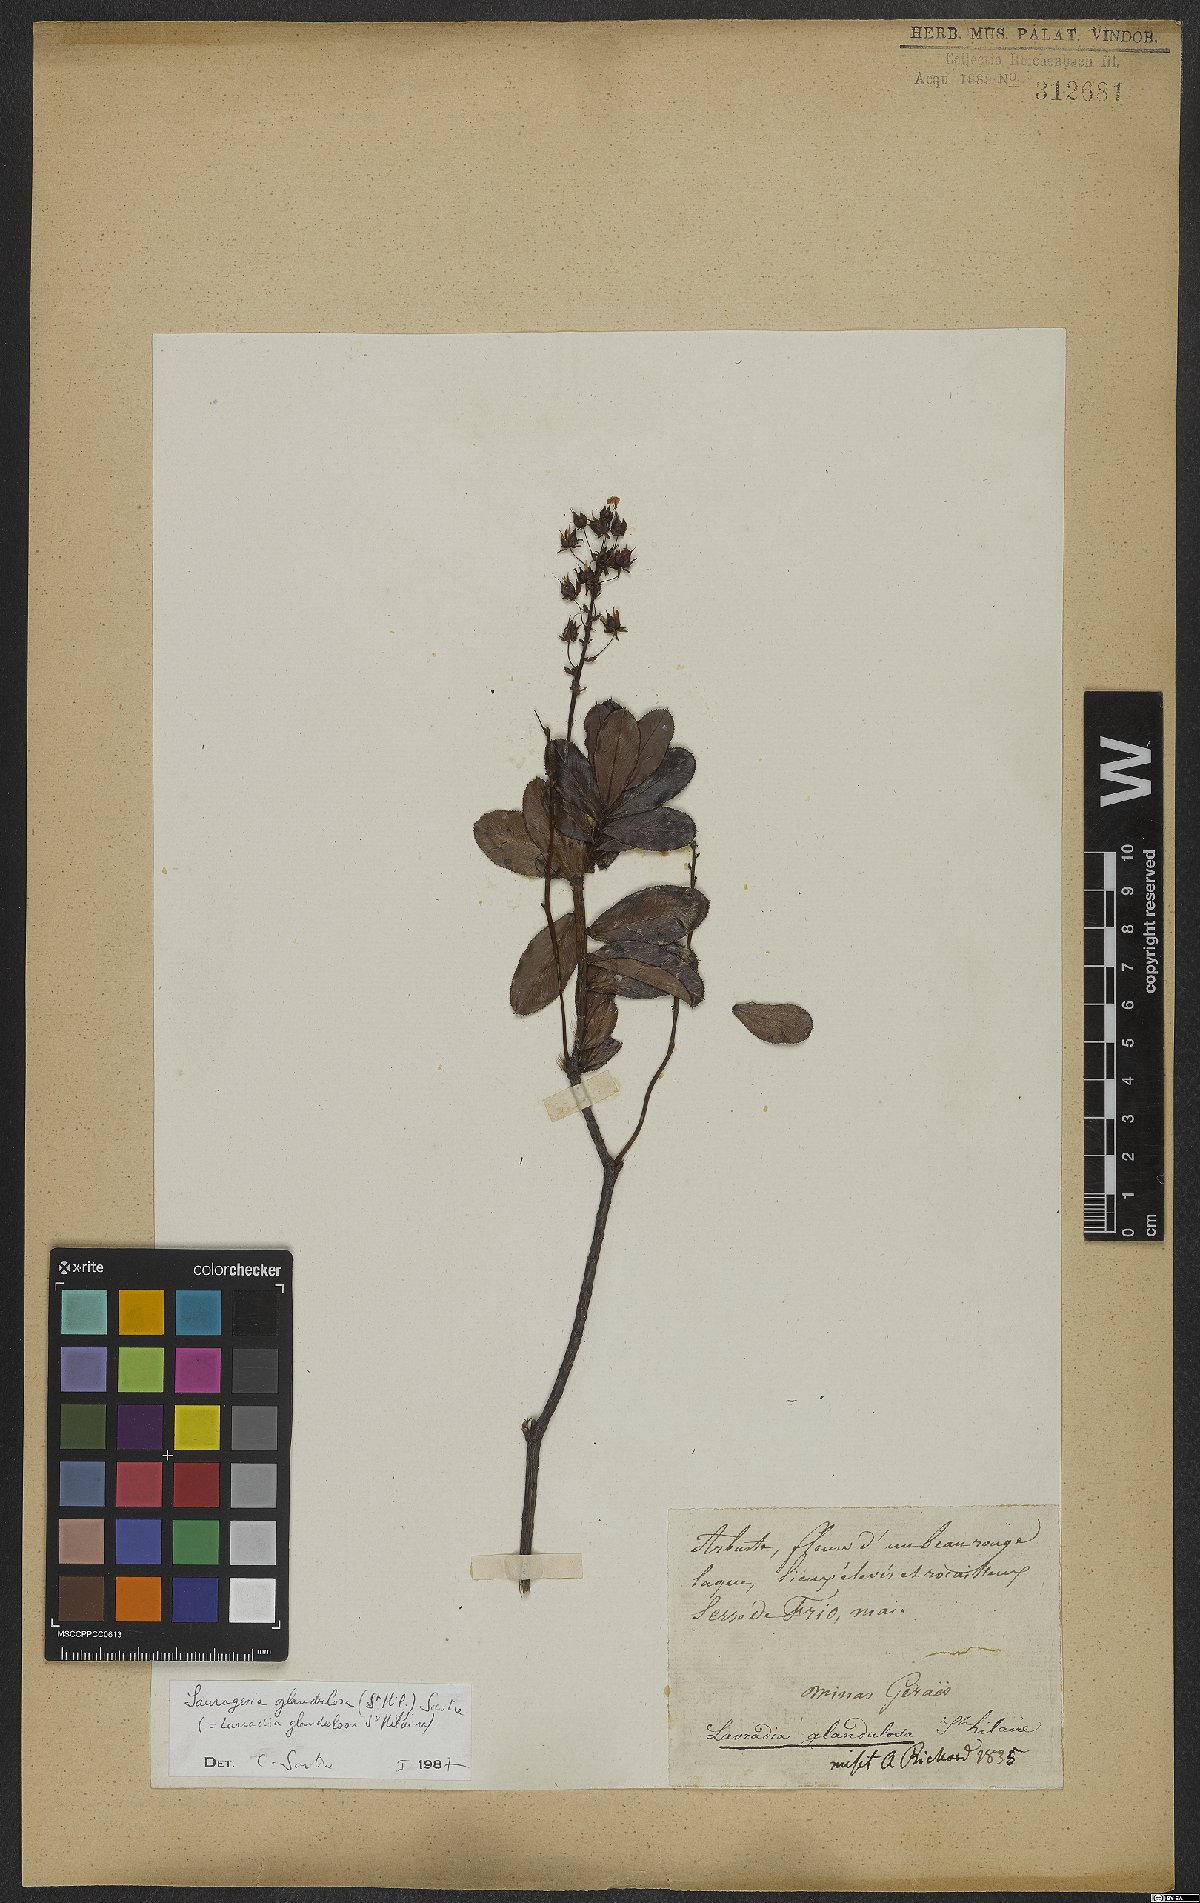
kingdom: Plantae
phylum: Tracheophyta
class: Magnoliopsida
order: Malpighiales
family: Ochnaceae
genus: Sauvagesia
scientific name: Sauvagesia glandulosa
